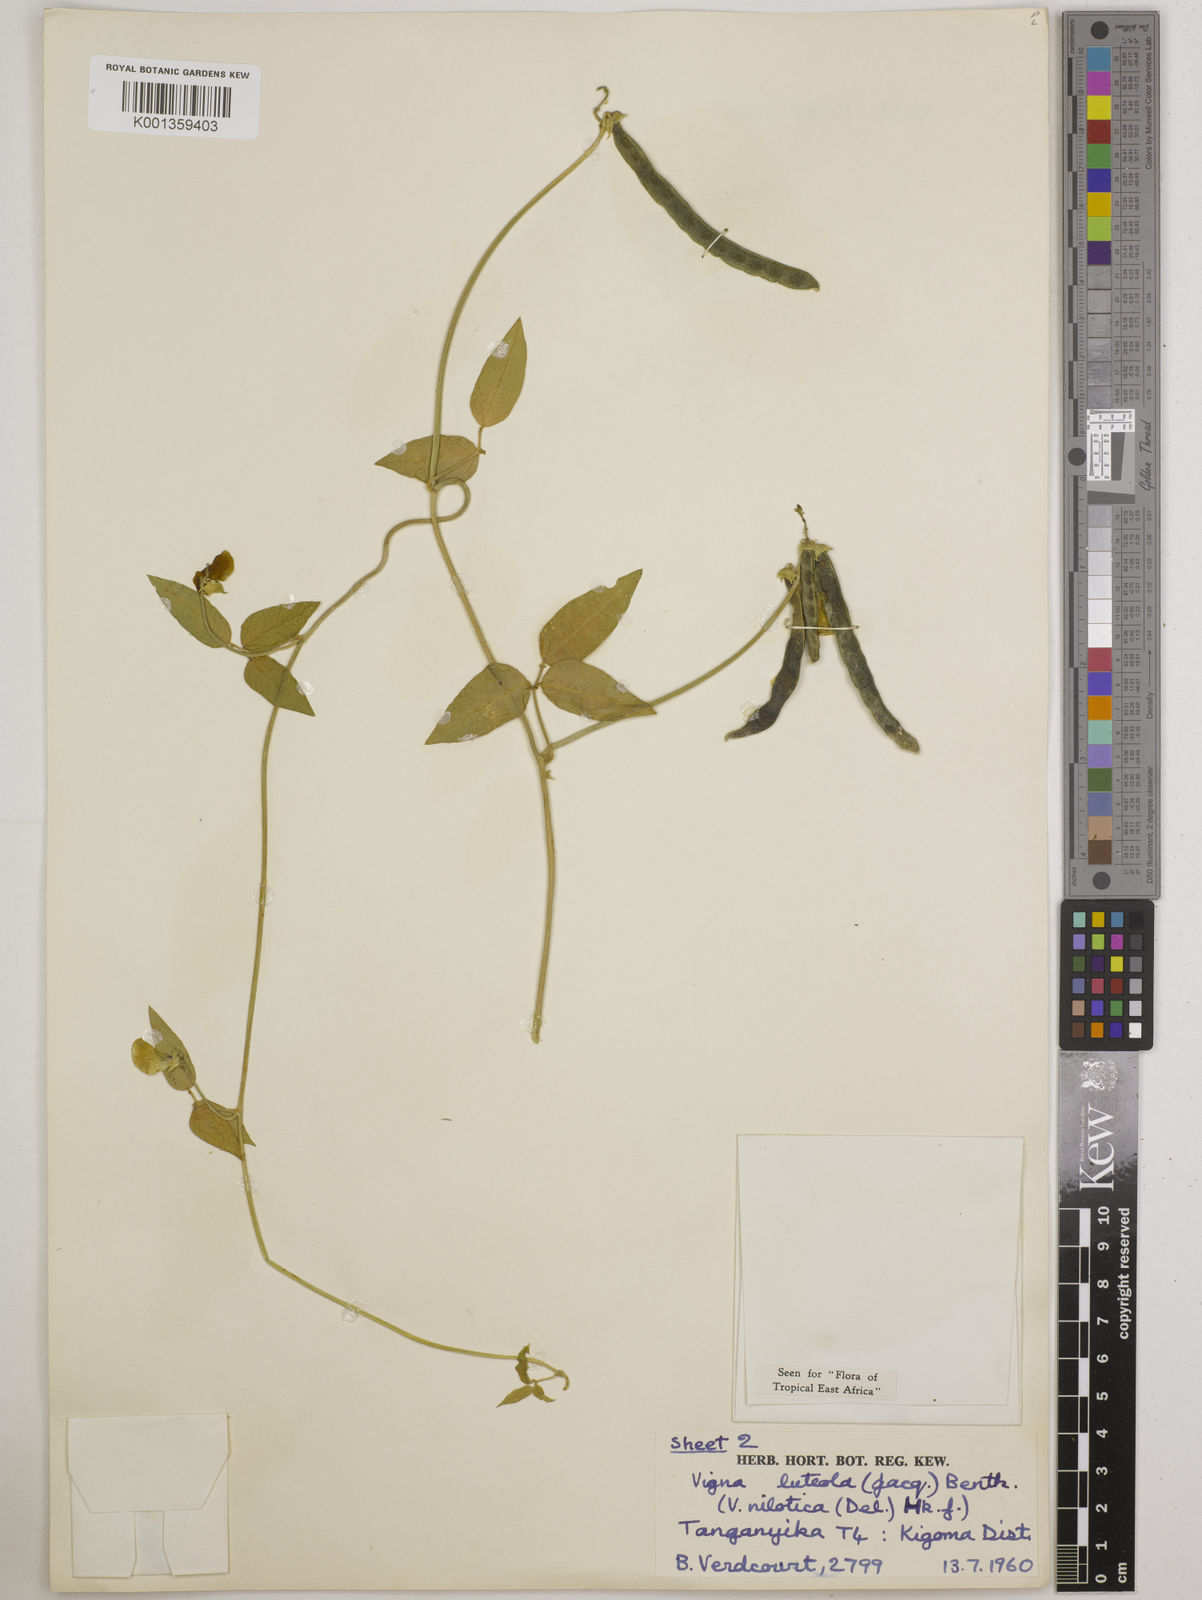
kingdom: Plantae
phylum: Tracheophyta
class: Magnoliopsida
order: Fabales
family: Fabaceae
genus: Vigna
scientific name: Vigna luteola
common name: Hairypod cowpea
